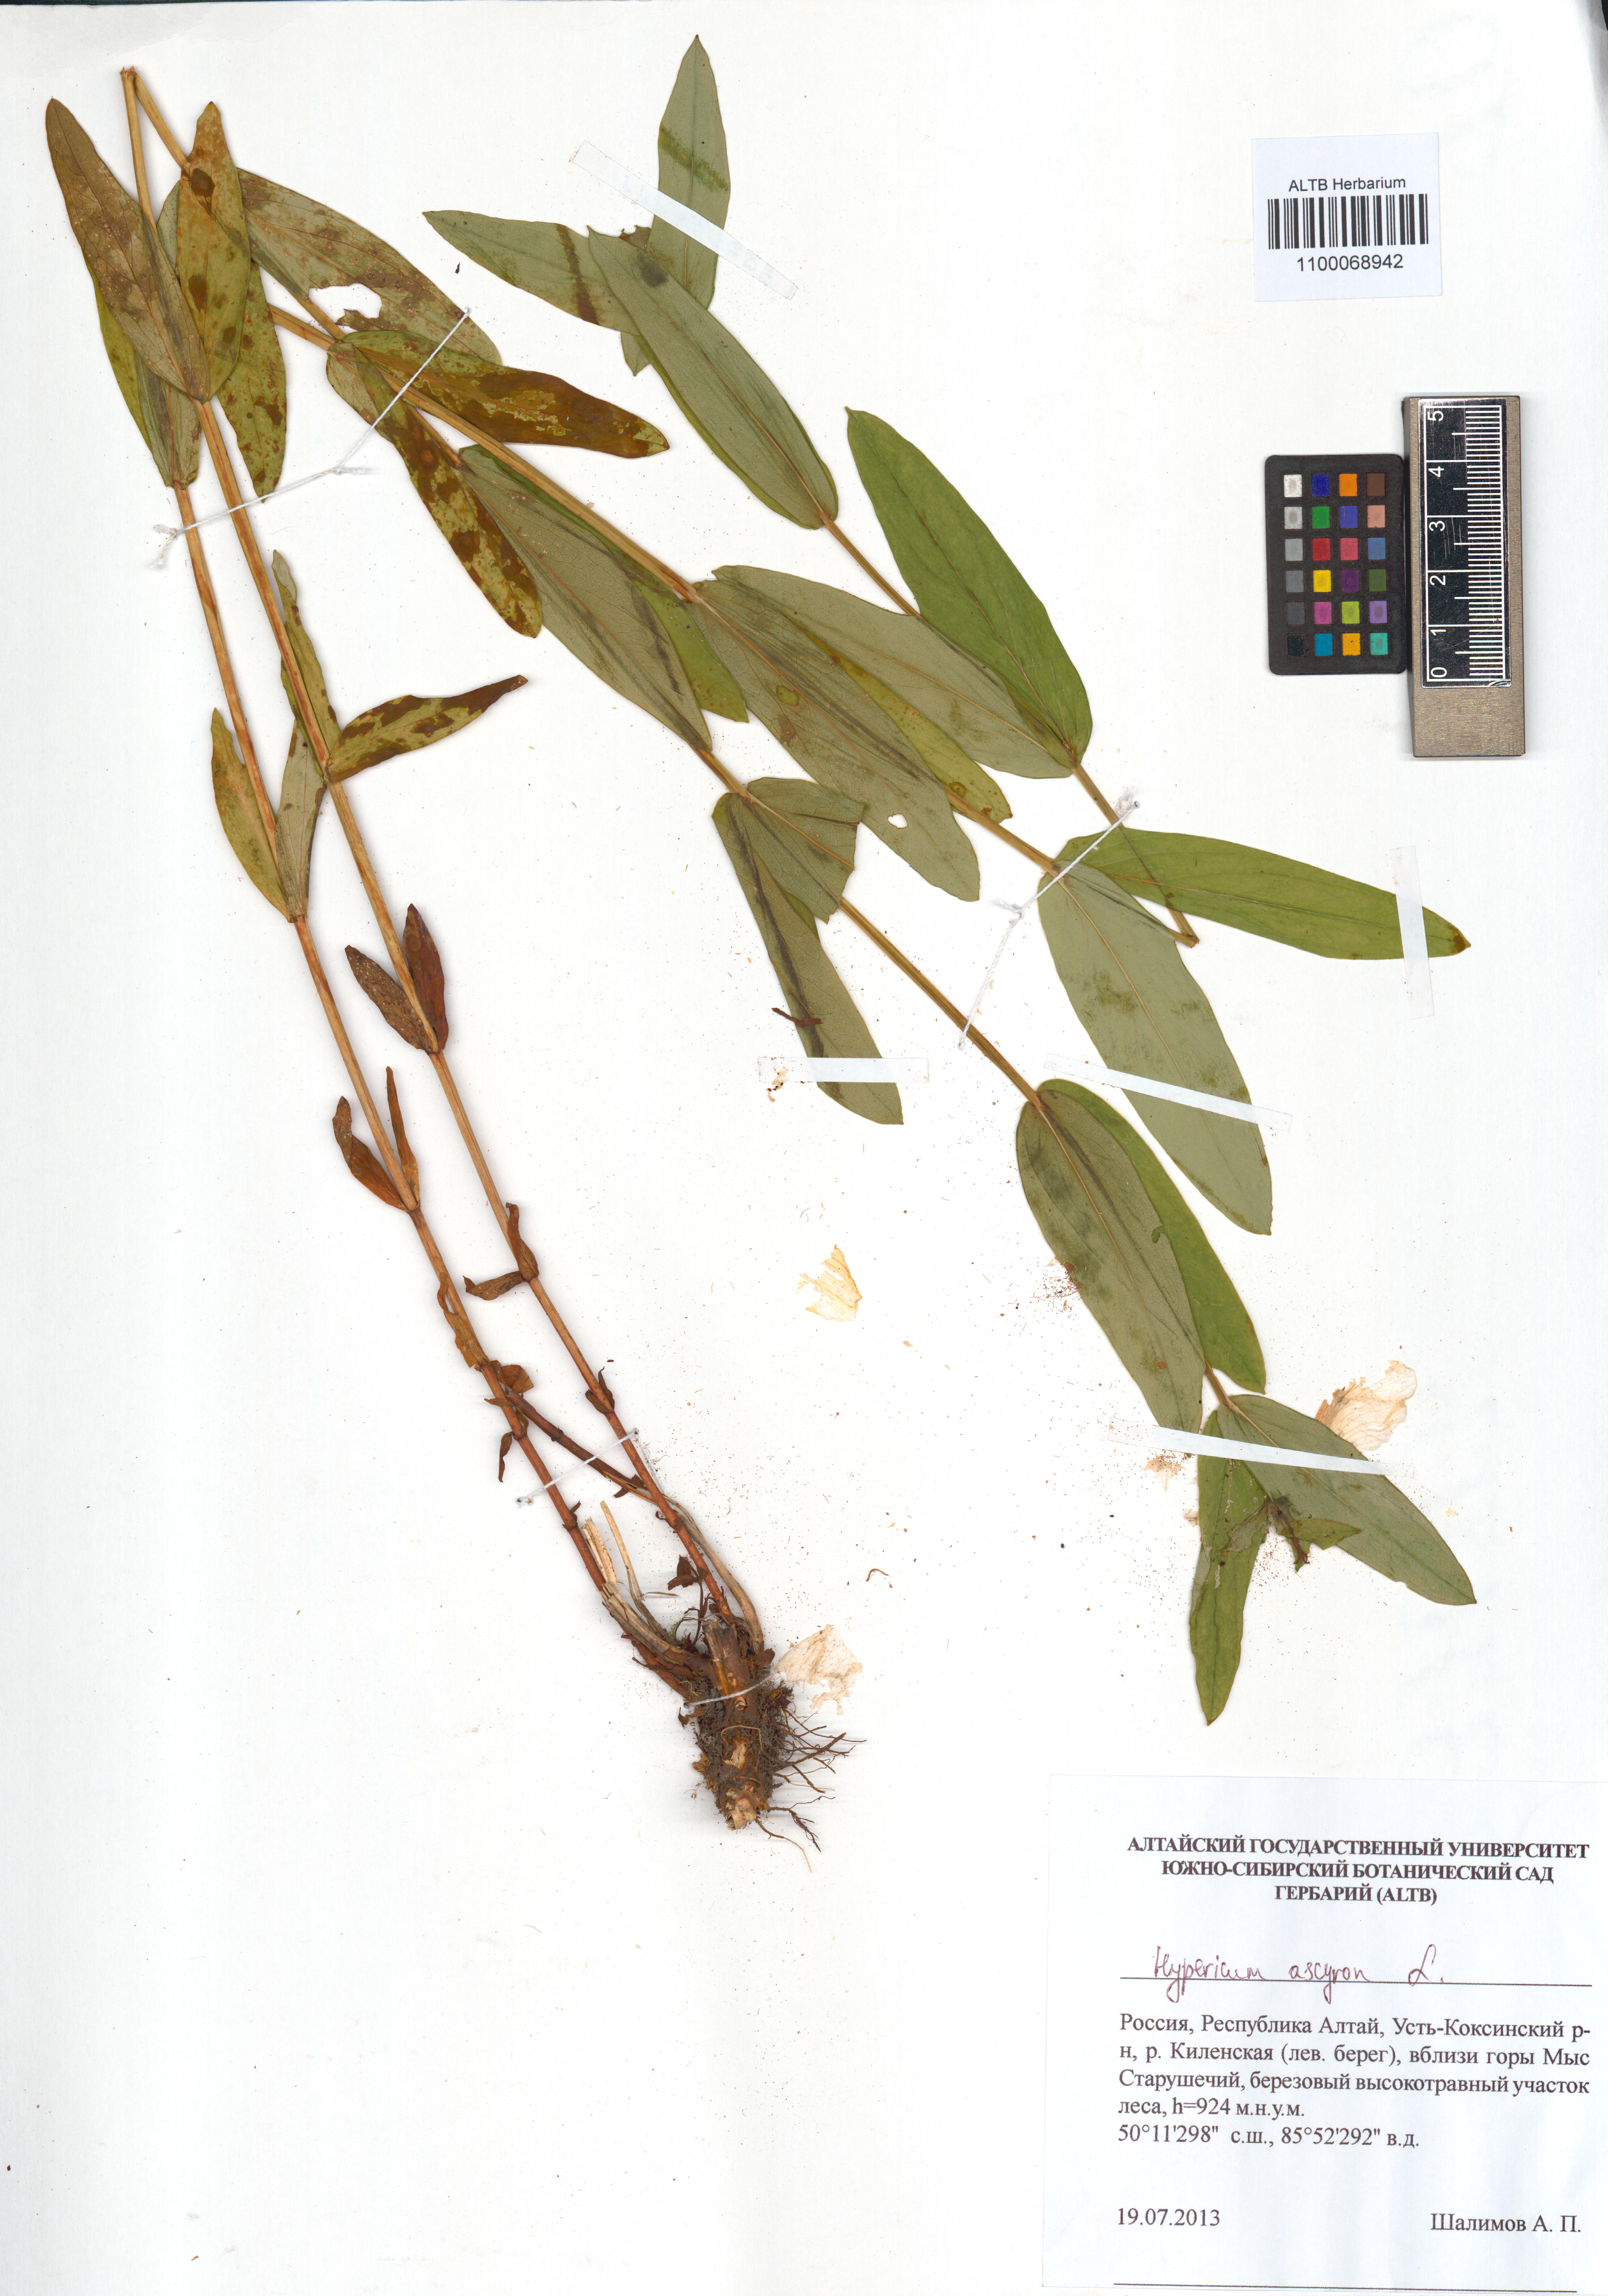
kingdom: Plantae
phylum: Tracheophyta
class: Magnoliopsida
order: Malpighiales
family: Hypericaceae
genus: Hypericum
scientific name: Hypericum ascyron
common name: Giant st. john's-wort
